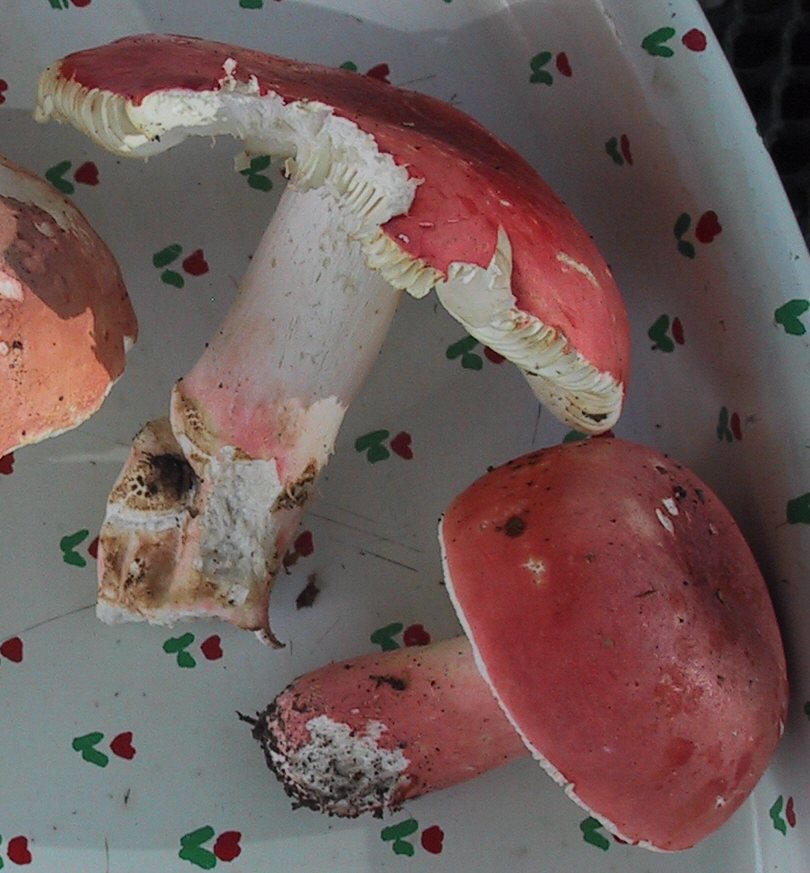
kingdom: Fungi
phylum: Basidiomycota
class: Agaricomycetes
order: Russulales
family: Russulaceae
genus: Russula
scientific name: Russula rosea
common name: fastkødet skørhat
